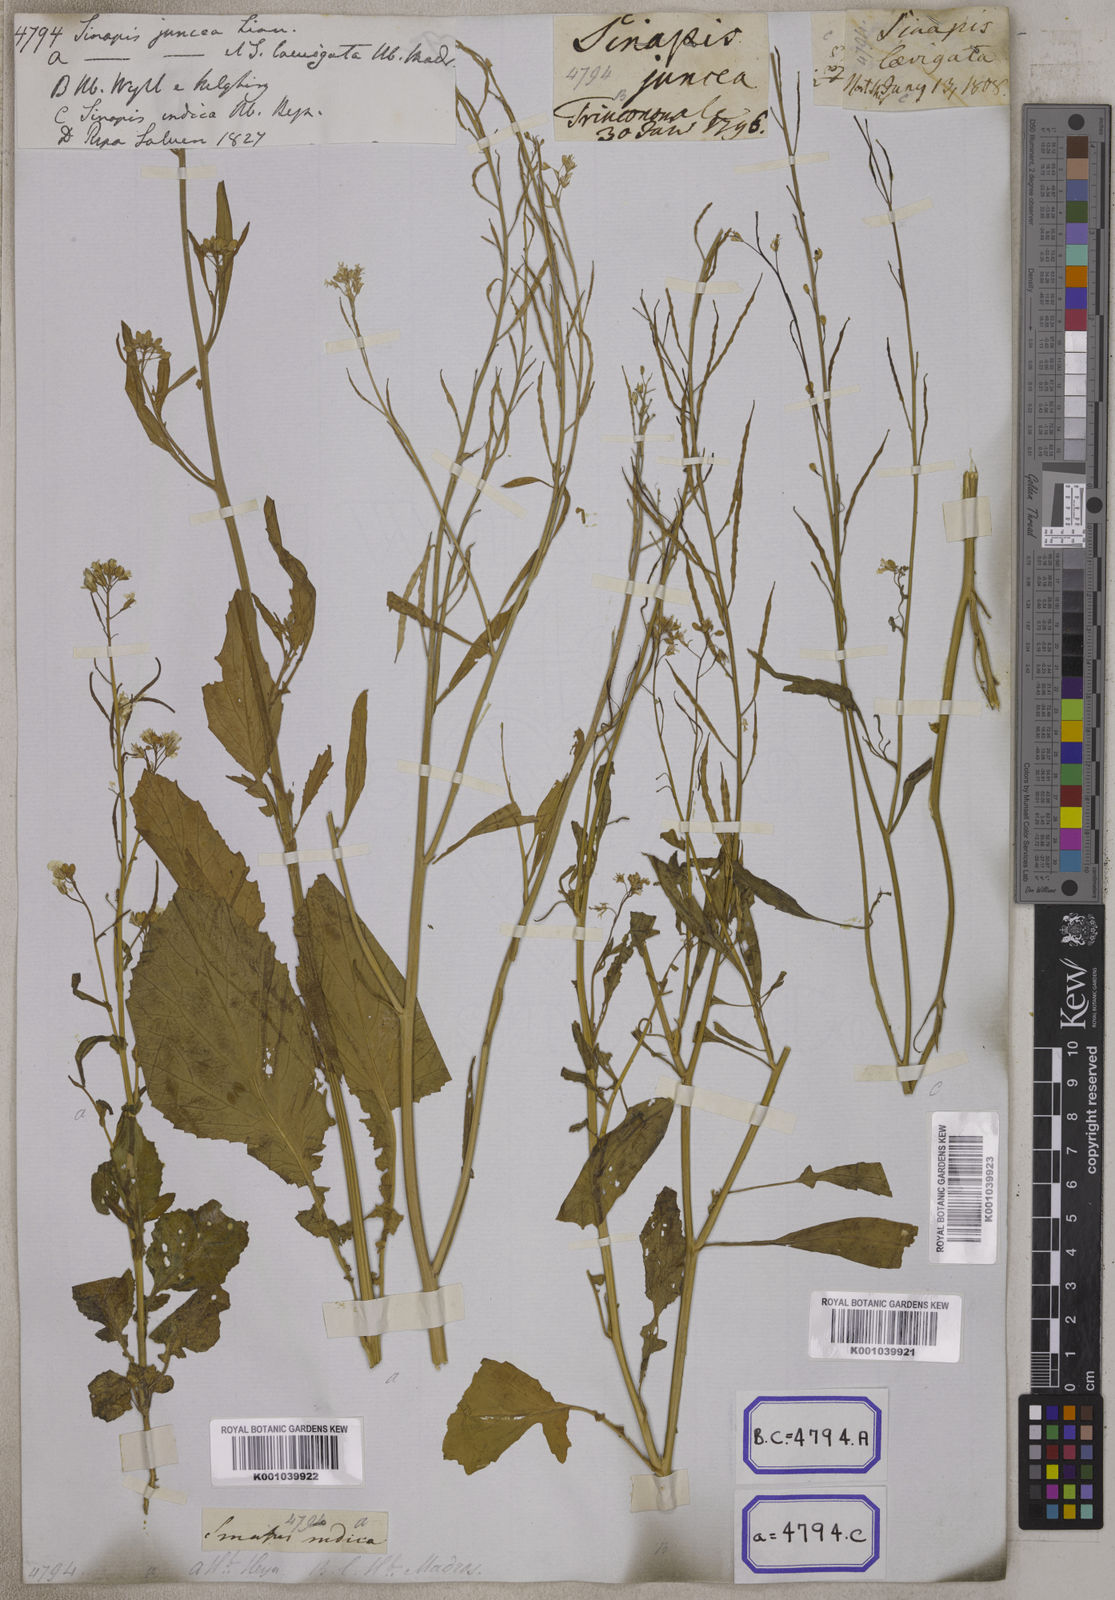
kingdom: Plantae
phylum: Tracheophyta
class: Magnoliopsida
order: Brassicales
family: Brassicaceae
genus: Brassica
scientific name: Brassica juncea
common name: Brown mustard
